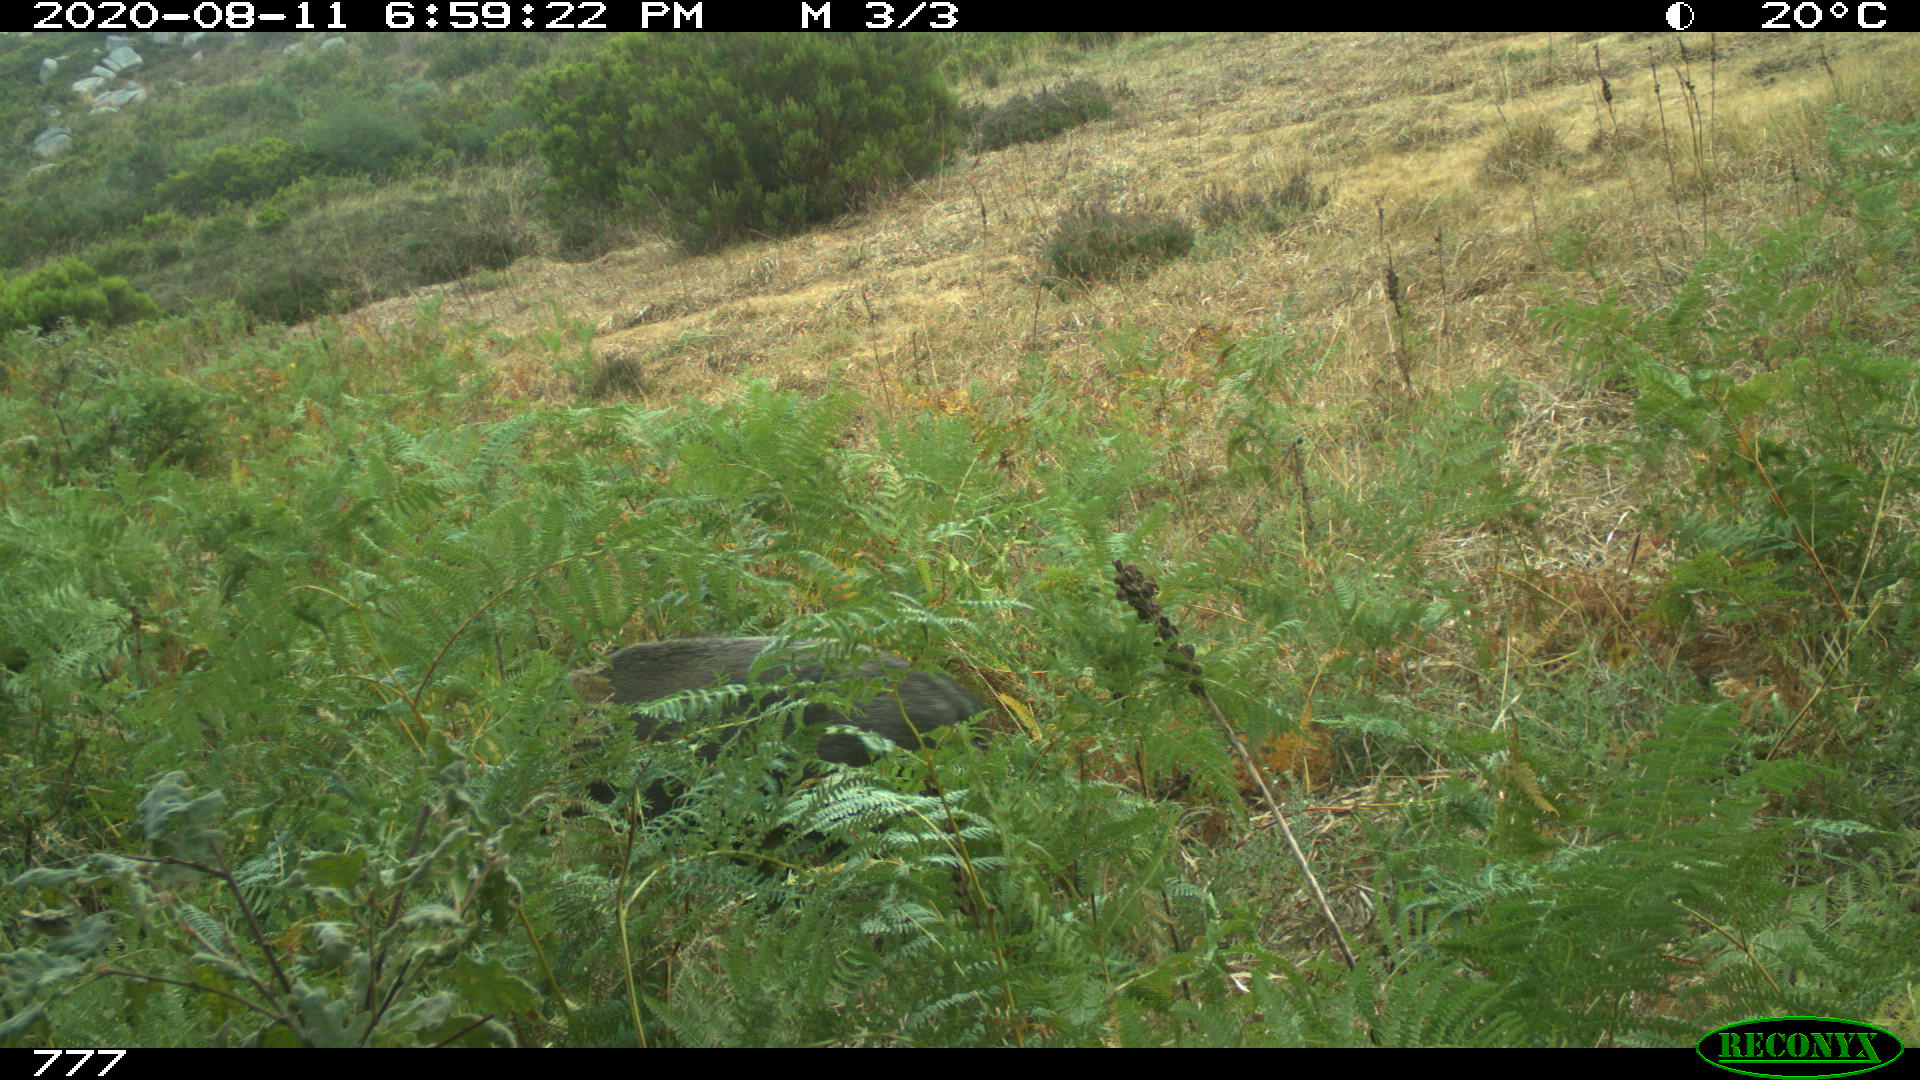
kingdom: Animalia
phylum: Chordata
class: Mammalia
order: Artiodactyla
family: Suidae
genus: Sus
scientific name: Sus scrofa
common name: Wild boar
